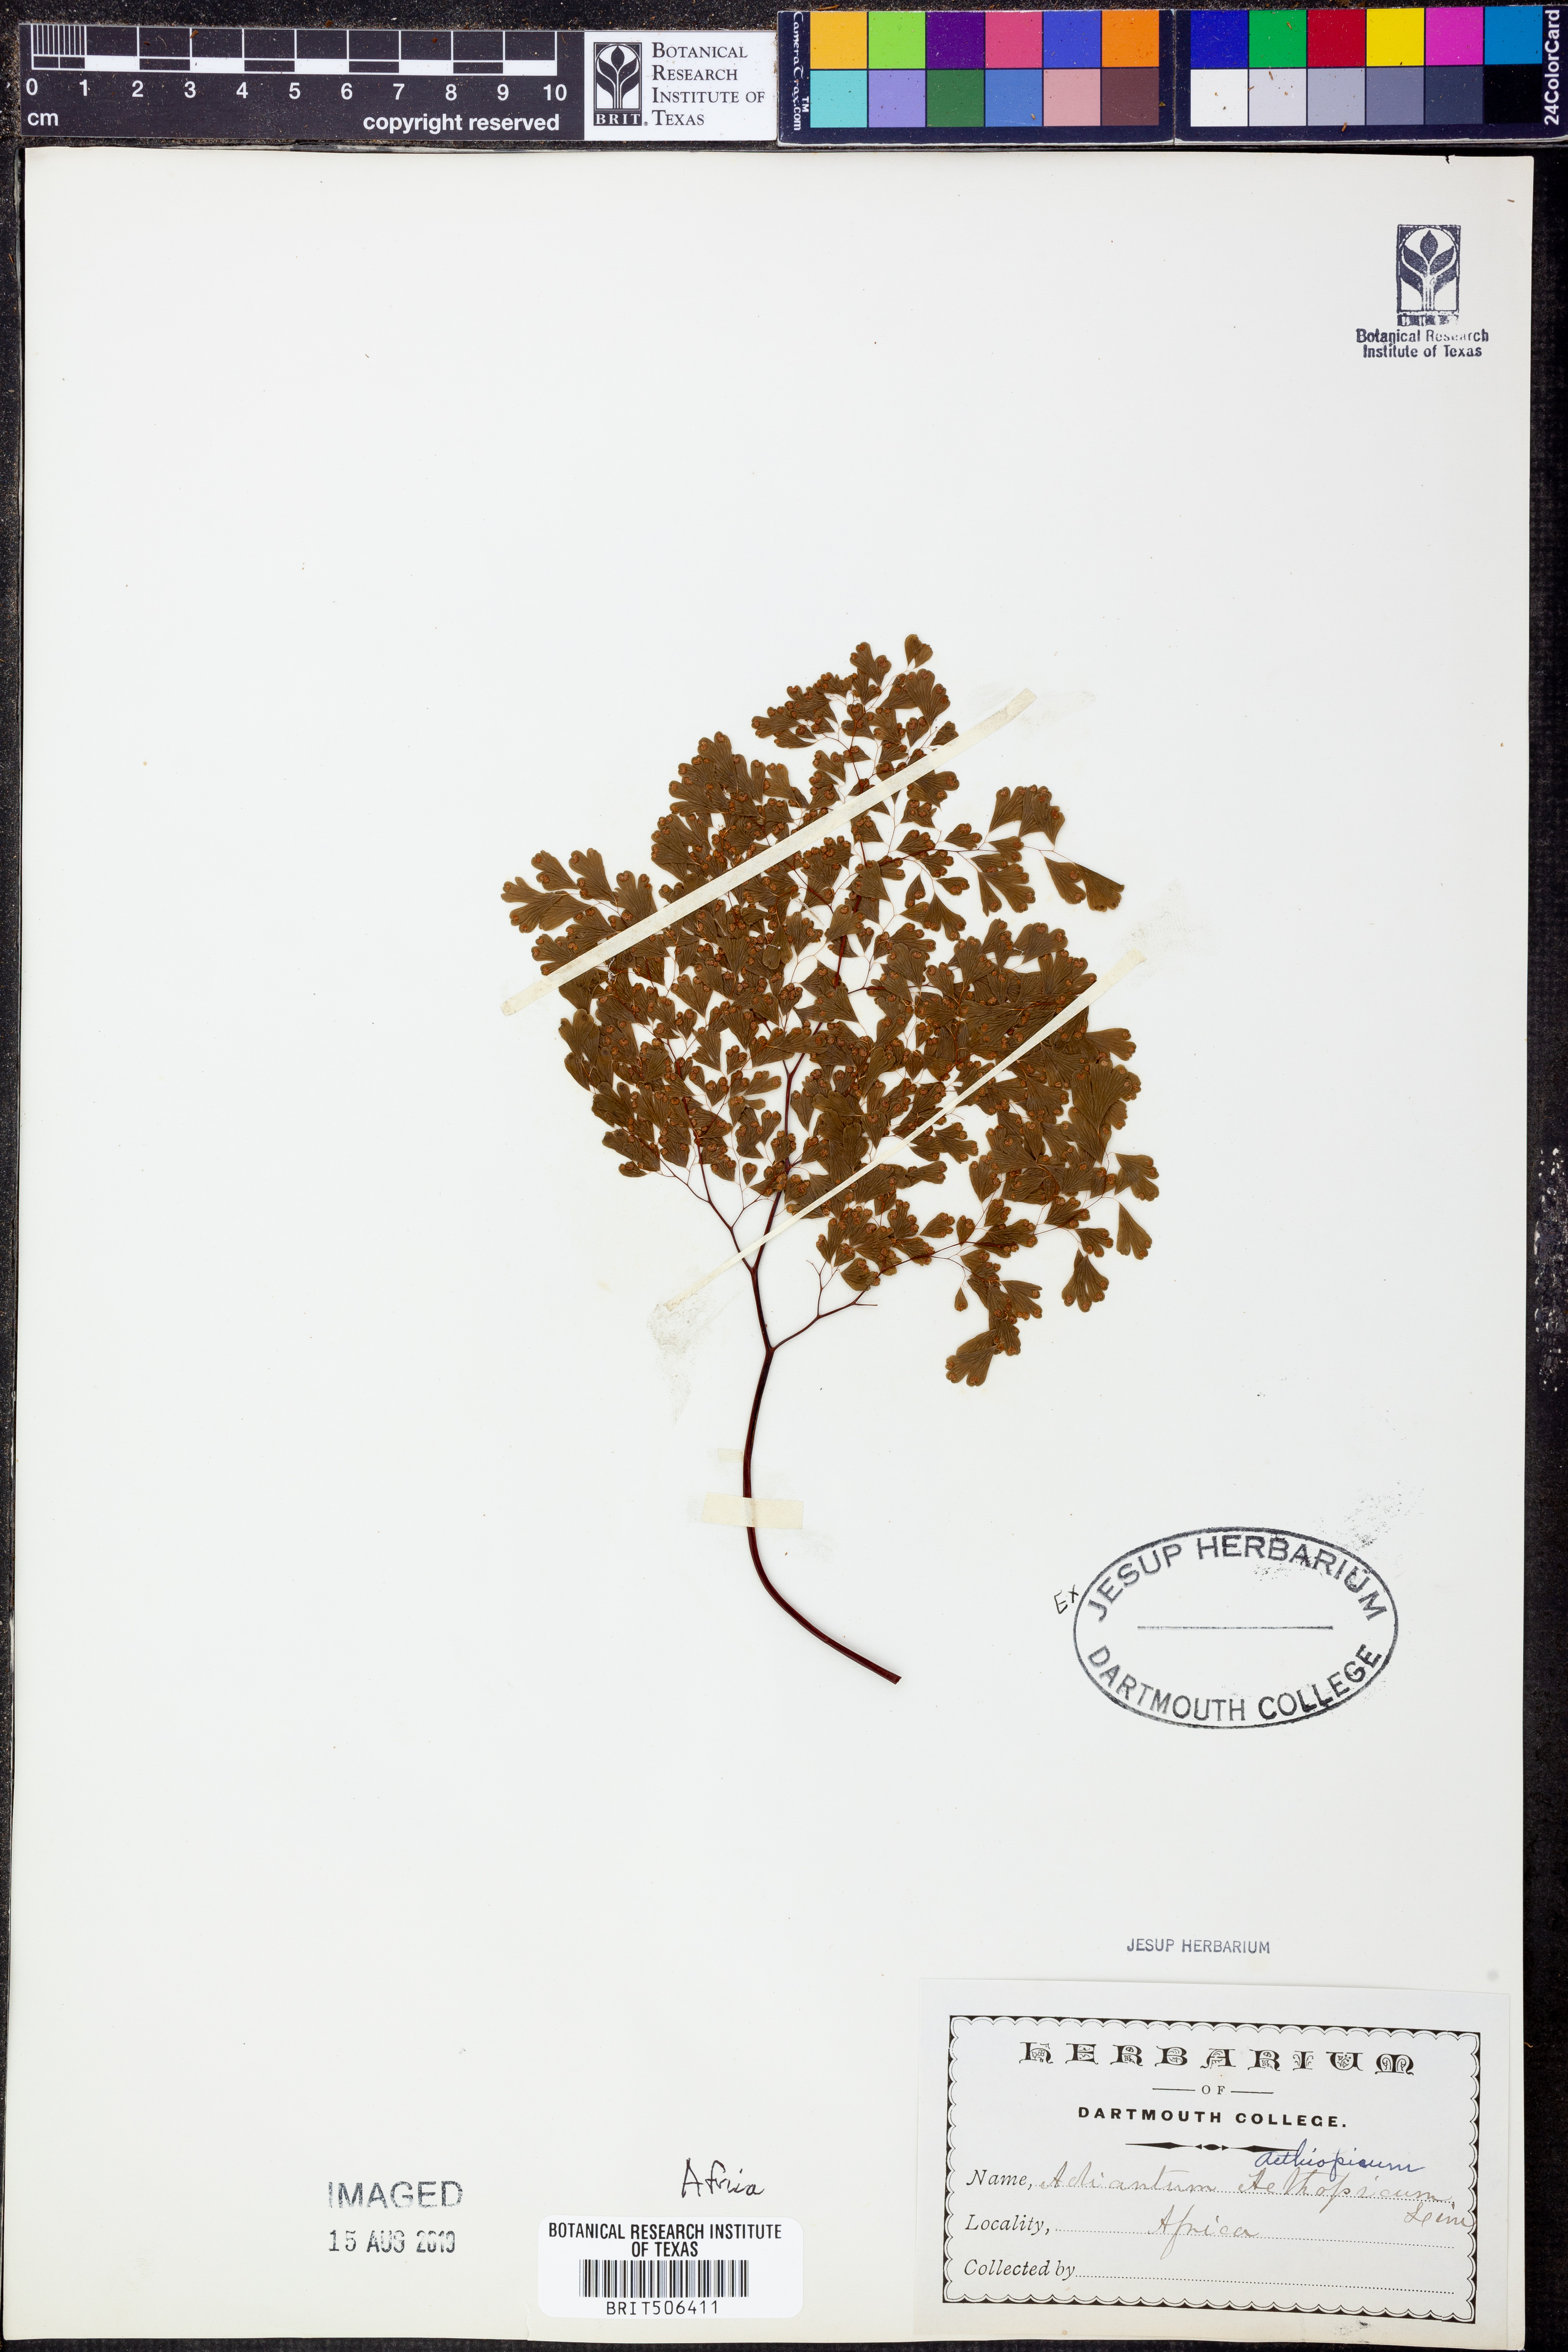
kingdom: Plantae
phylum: Tracheophyta
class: Polypodiopsida
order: Polypodiales
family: Pteridaceae
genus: Adiantum
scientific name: Adiantum aethiopicum
